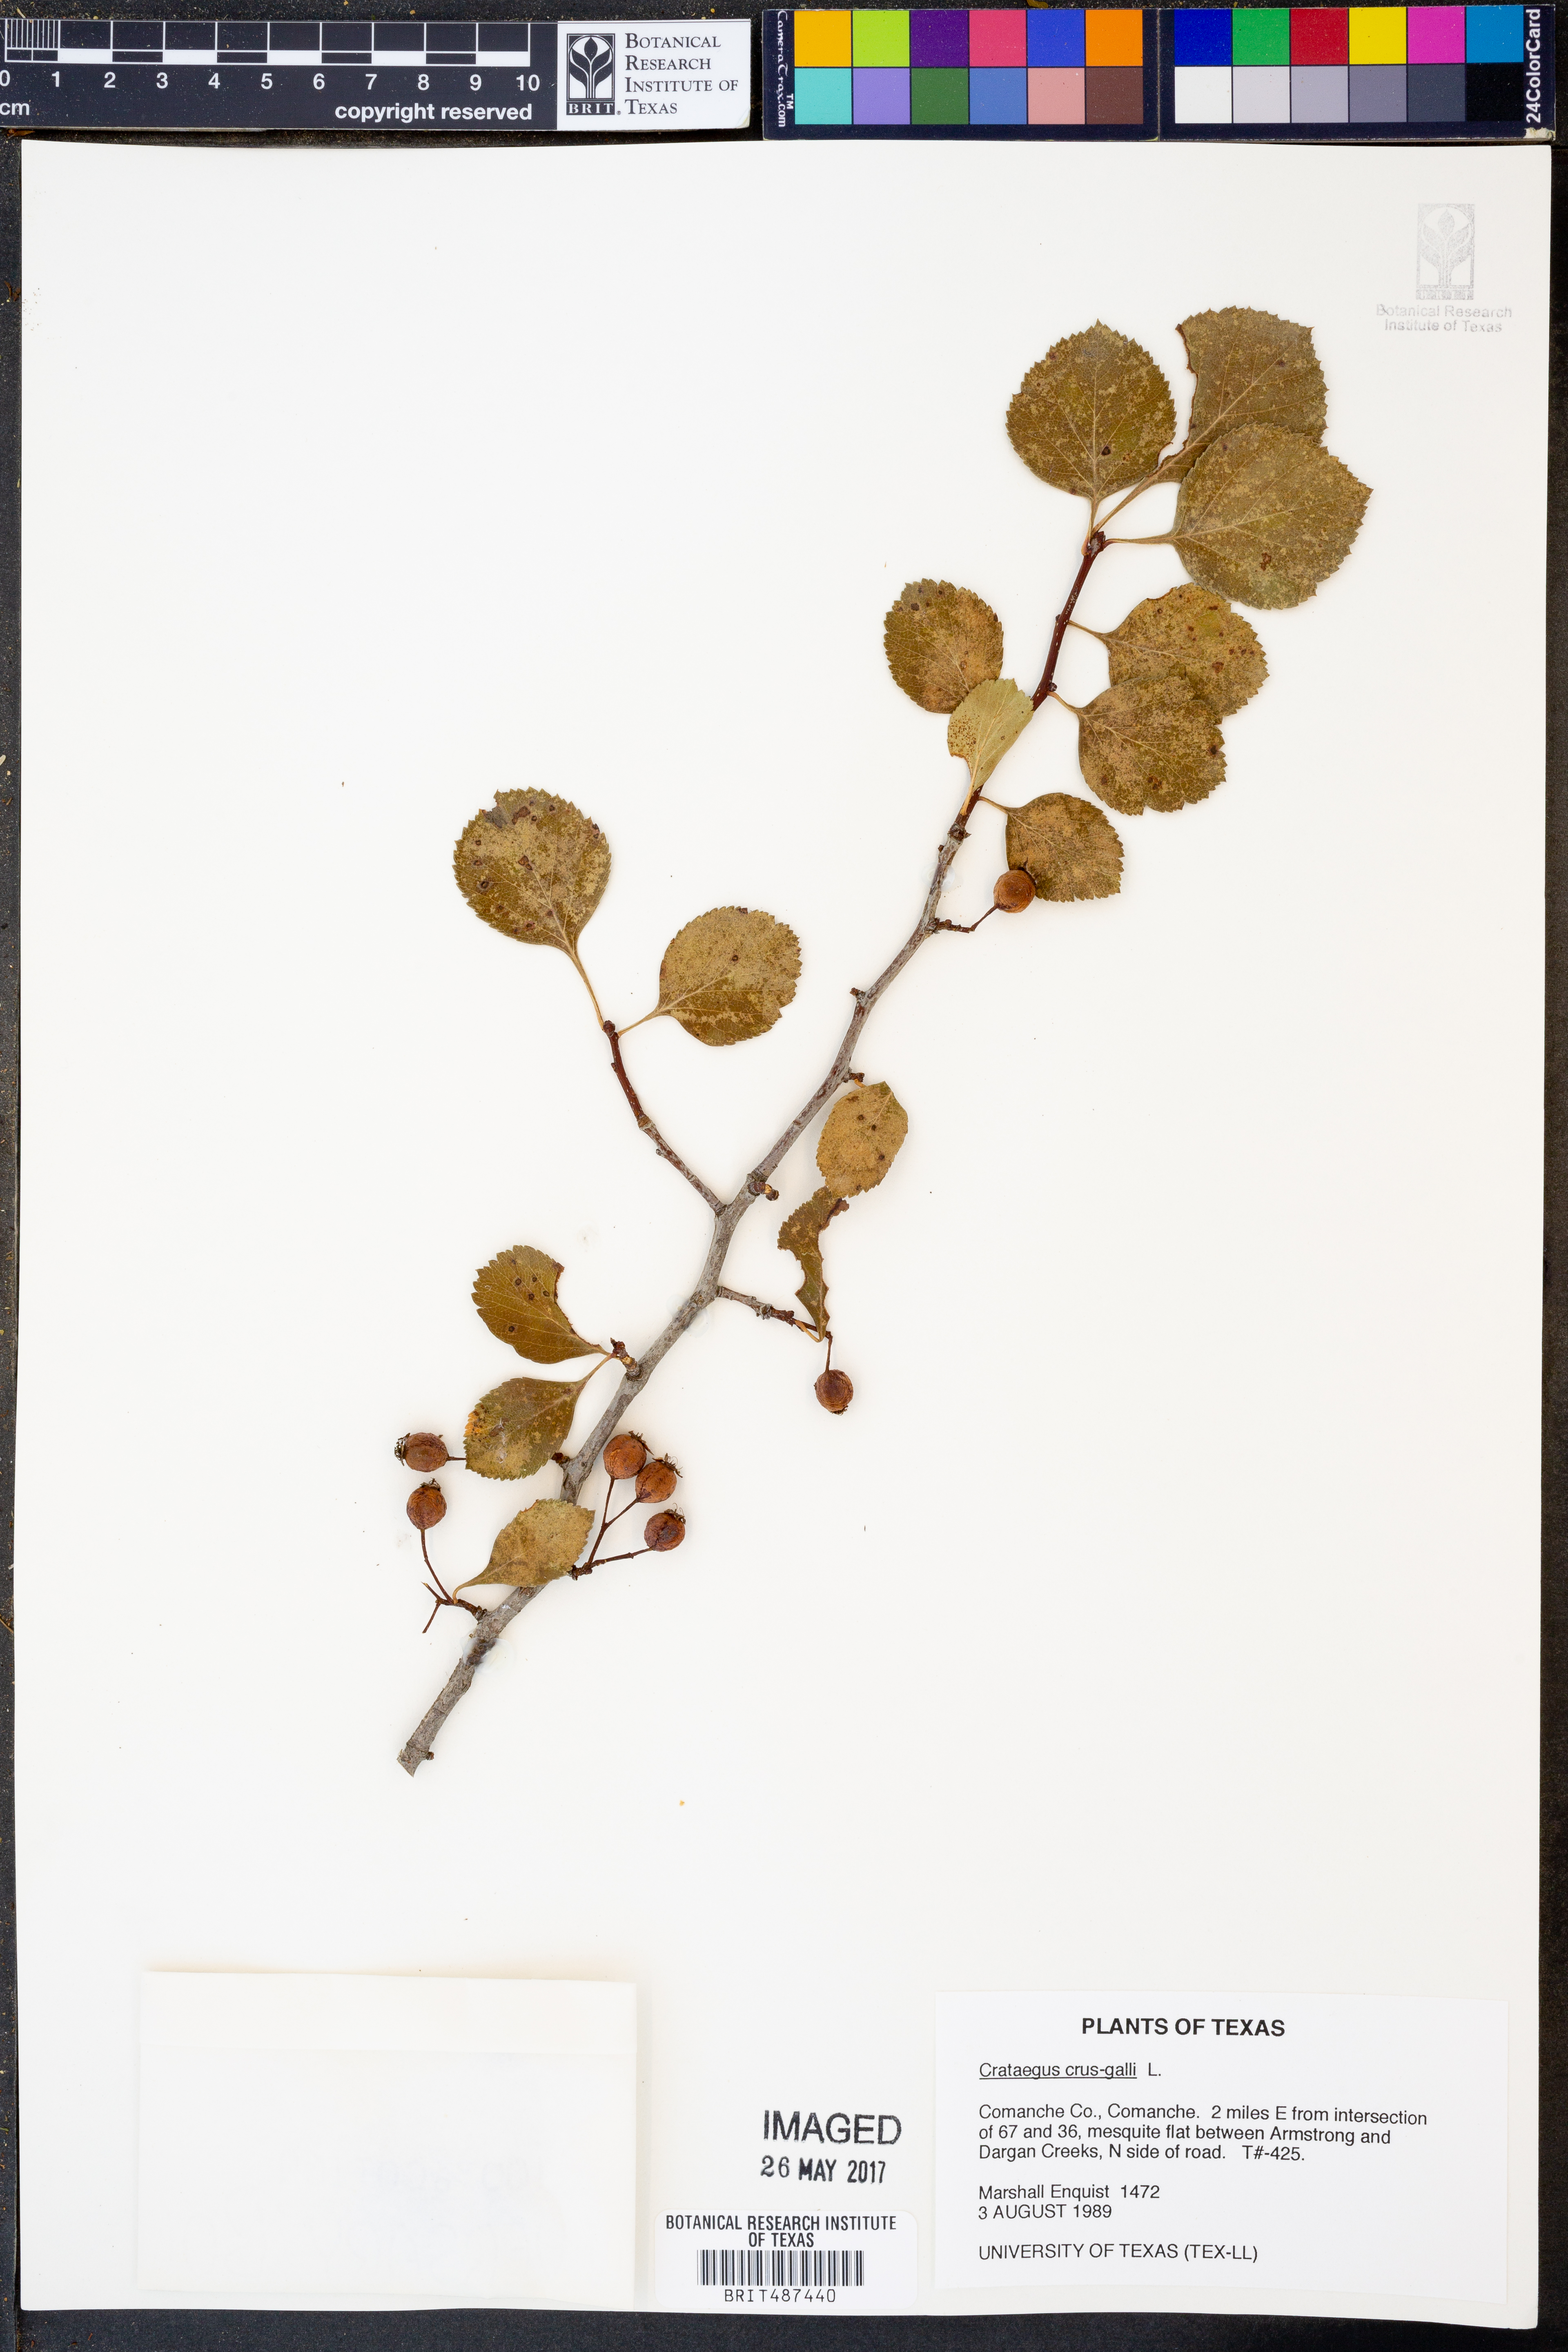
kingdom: Plantae
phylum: Tracheophyta
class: Magnoliopsida
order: Rosales
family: Rosaceae
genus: Crataegus
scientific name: Crataegus crus-galli
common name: Cockspurthorn
